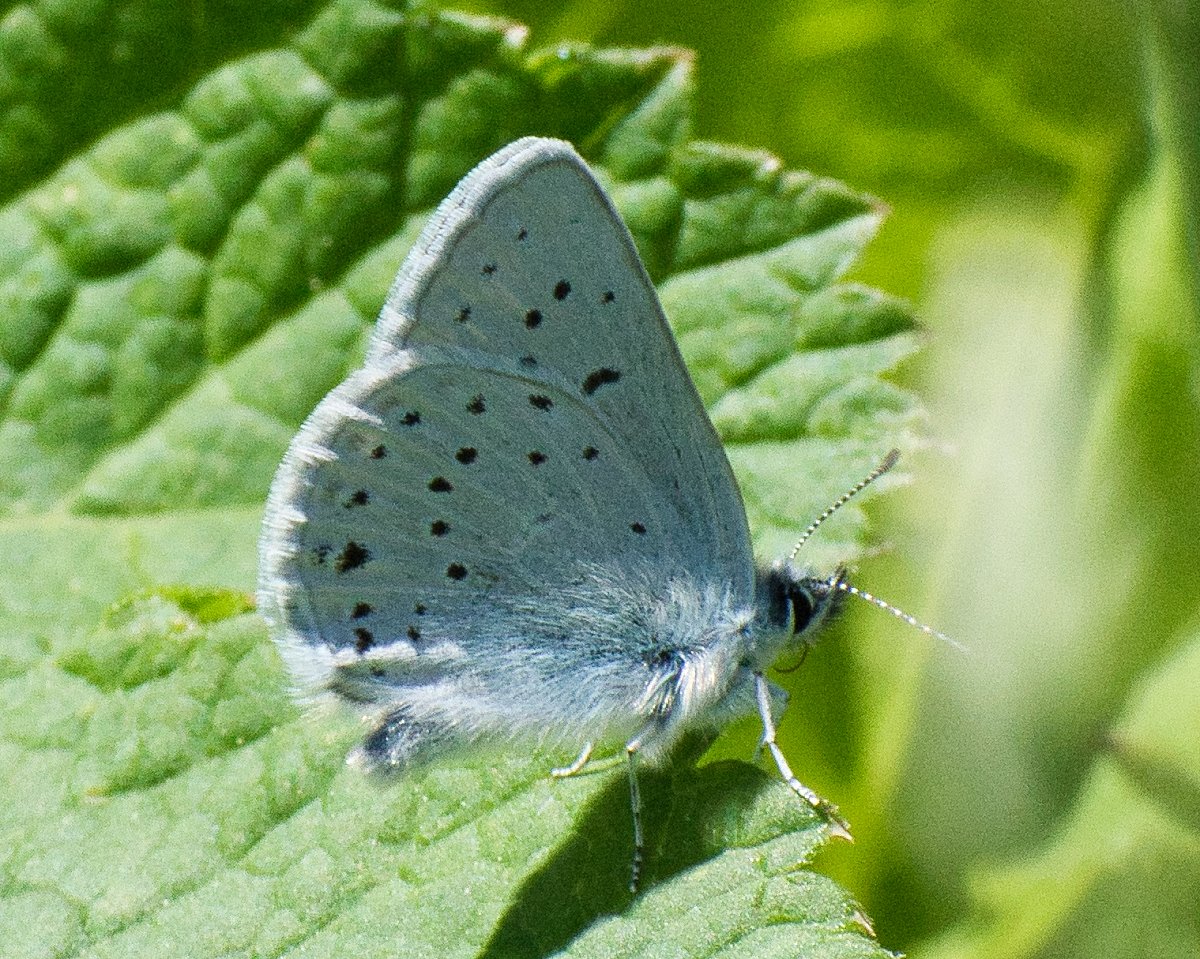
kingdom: Animalia
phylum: Arthropoda
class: Insecta
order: Lepidoptera
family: Lycaenidae
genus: Plebejus
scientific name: Plebejus saepiolus
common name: Greenish Blue
